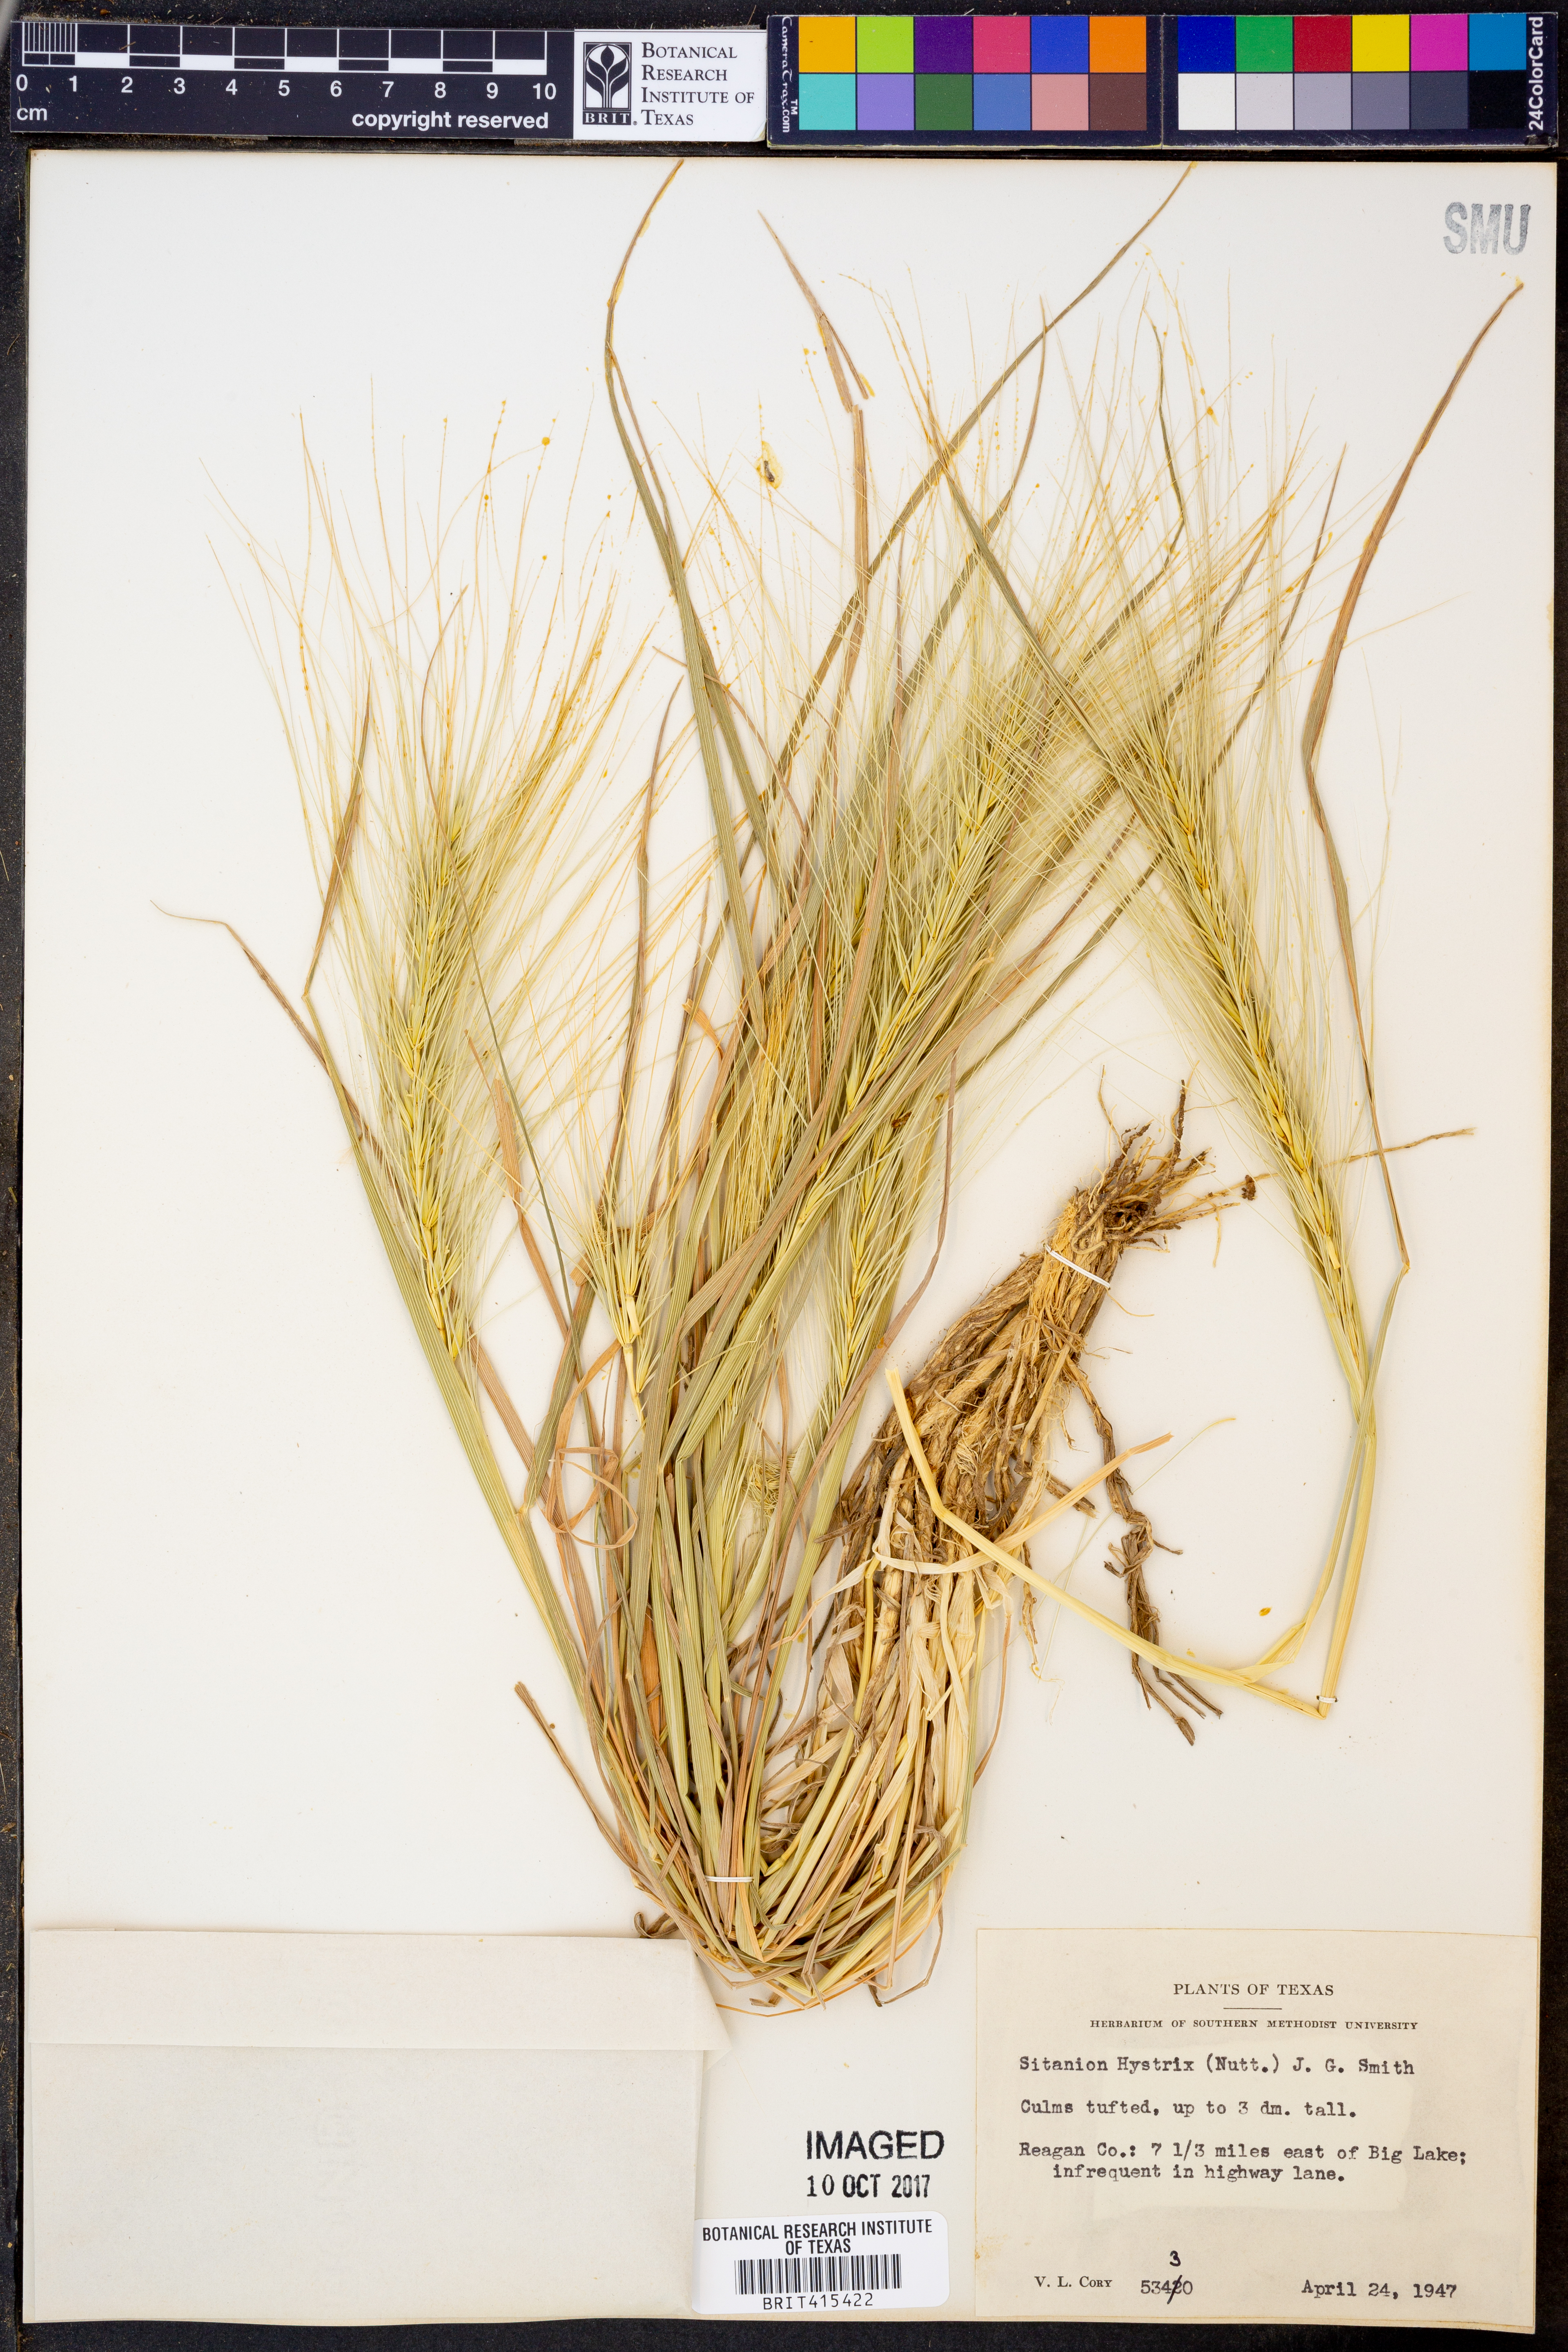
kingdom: Plantae
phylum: Tracheophyta
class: Liliopsida
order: Poales
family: Poaceae
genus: Elymus
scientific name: Elymus elymoides
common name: Bottlebrush squirreltail
